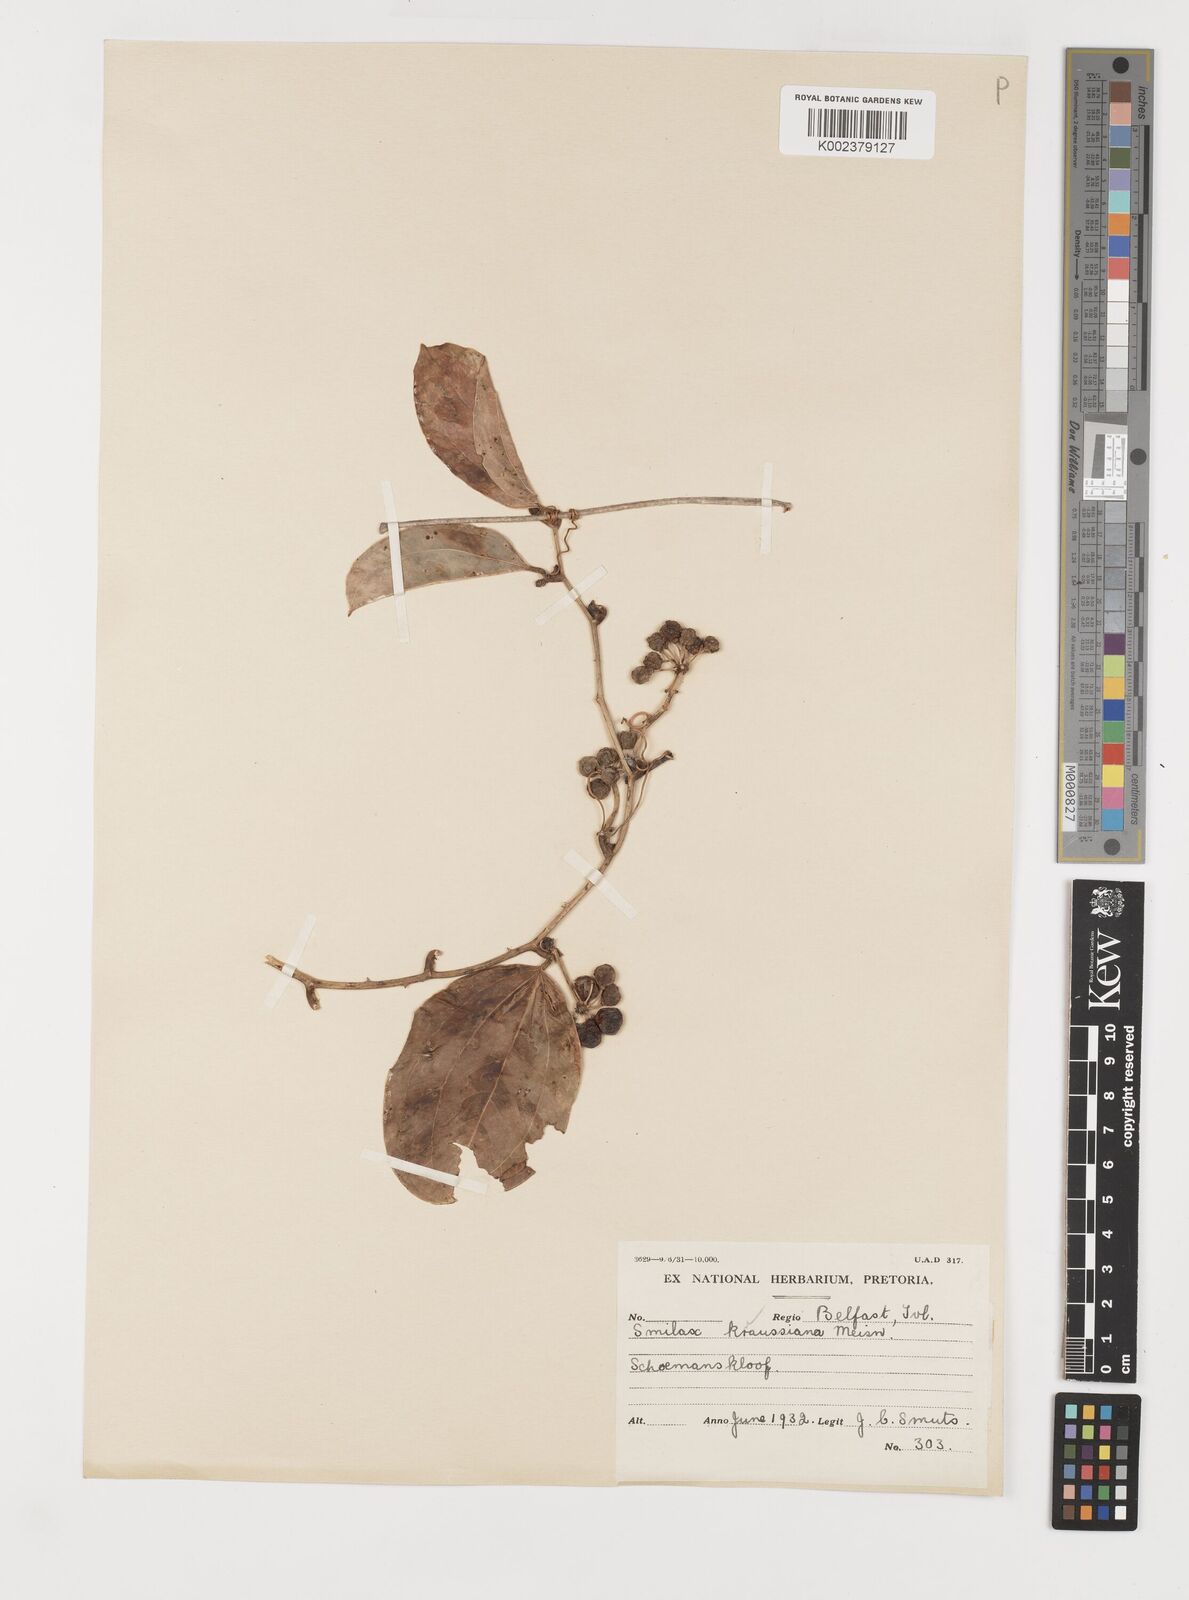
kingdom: Plantae
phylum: Tracheophyta
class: Liliopsida
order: Liliales
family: Smilacaceae
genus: Smilax
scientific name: Smilax anceps
